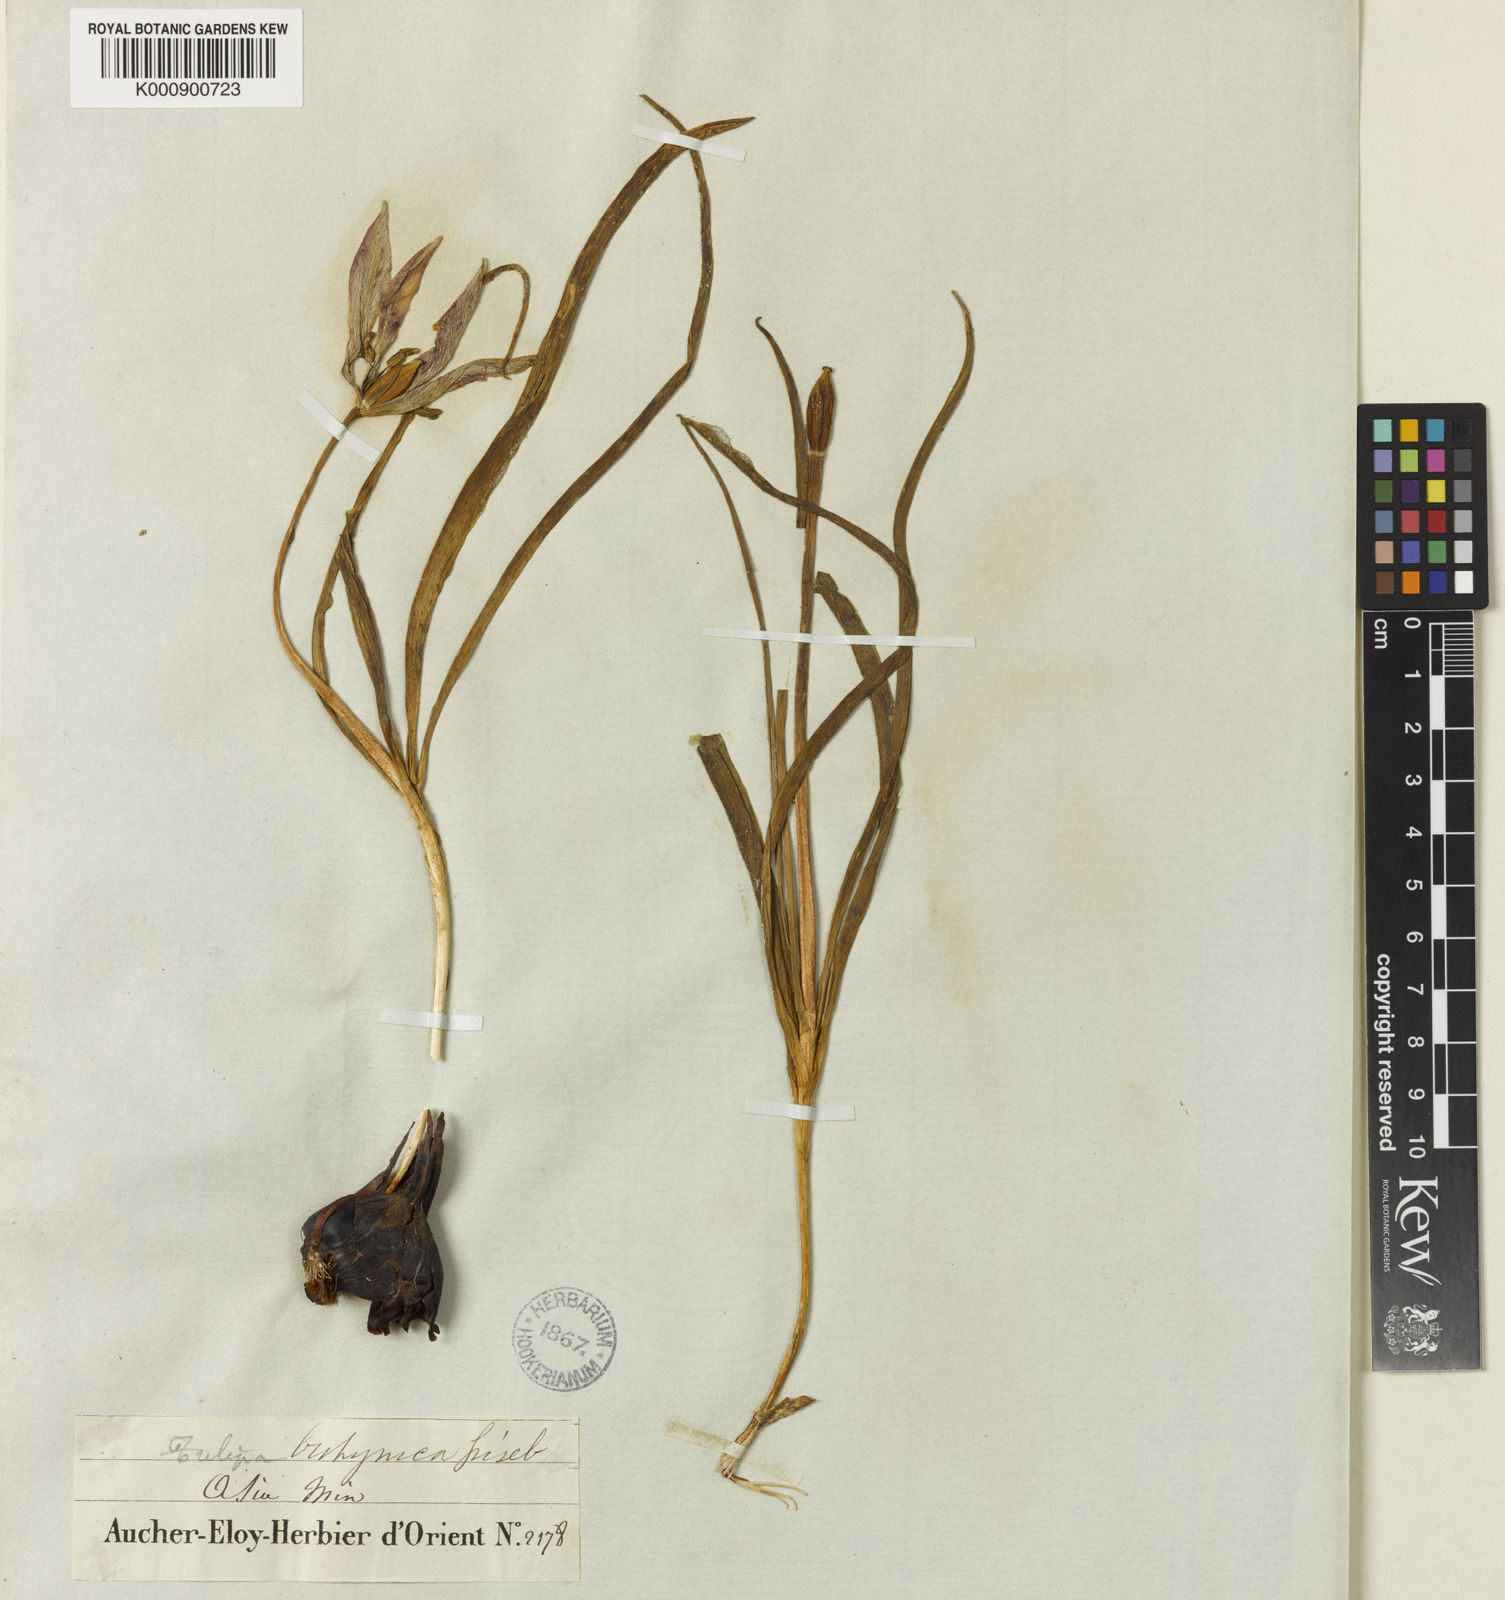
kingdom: Plantae
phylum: Tracheophyta
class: Liliopsida
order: Liliales
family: Liliaceae
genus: Tulipa
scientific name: Tulipa orphanidea
